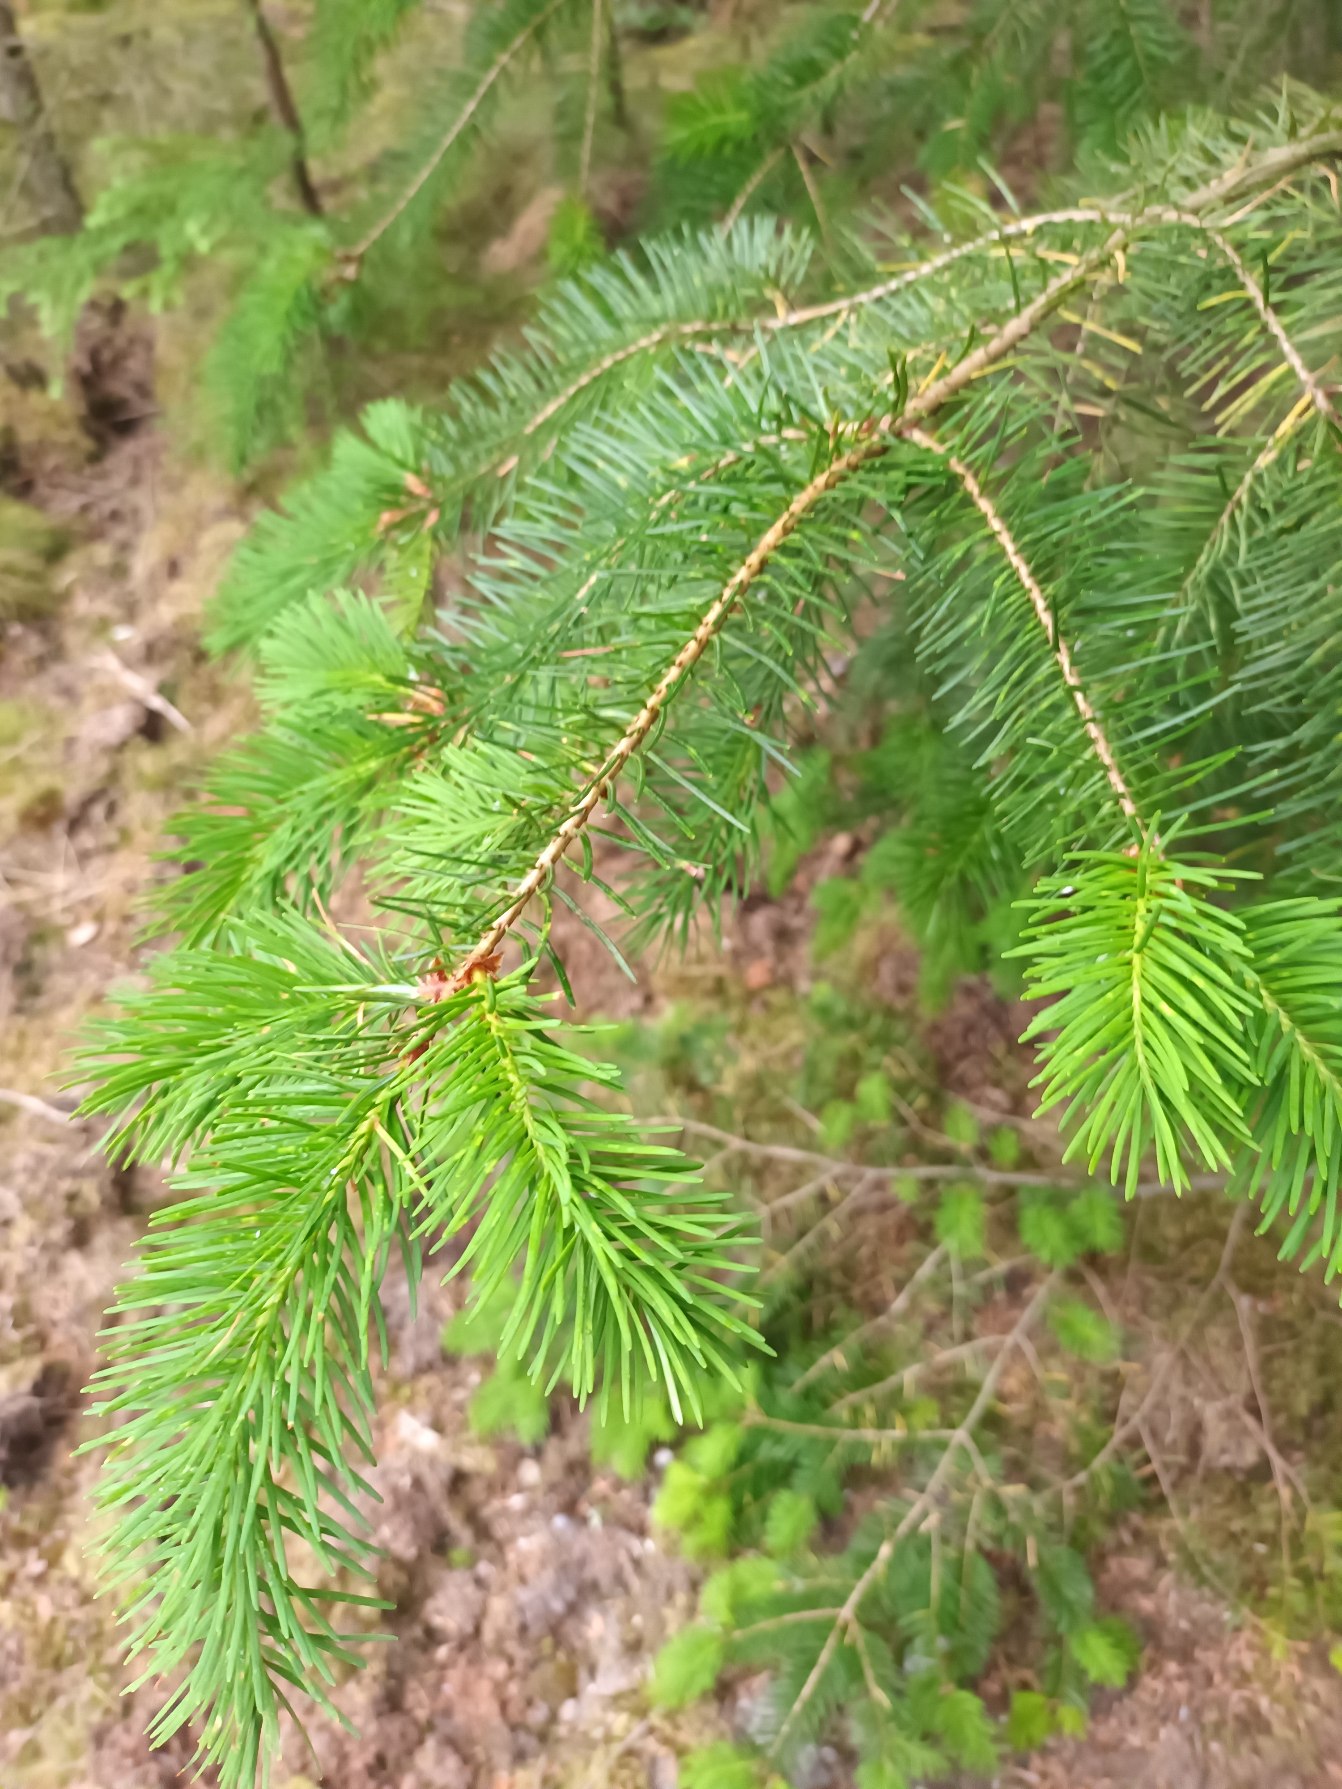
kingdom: Plantae
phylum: Tracheophyta
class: Pinopsida
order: Pinales
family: Pinaceae
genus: Pseudotsuga
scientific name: Pseudotsuga menziesii
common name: Douglasgran
